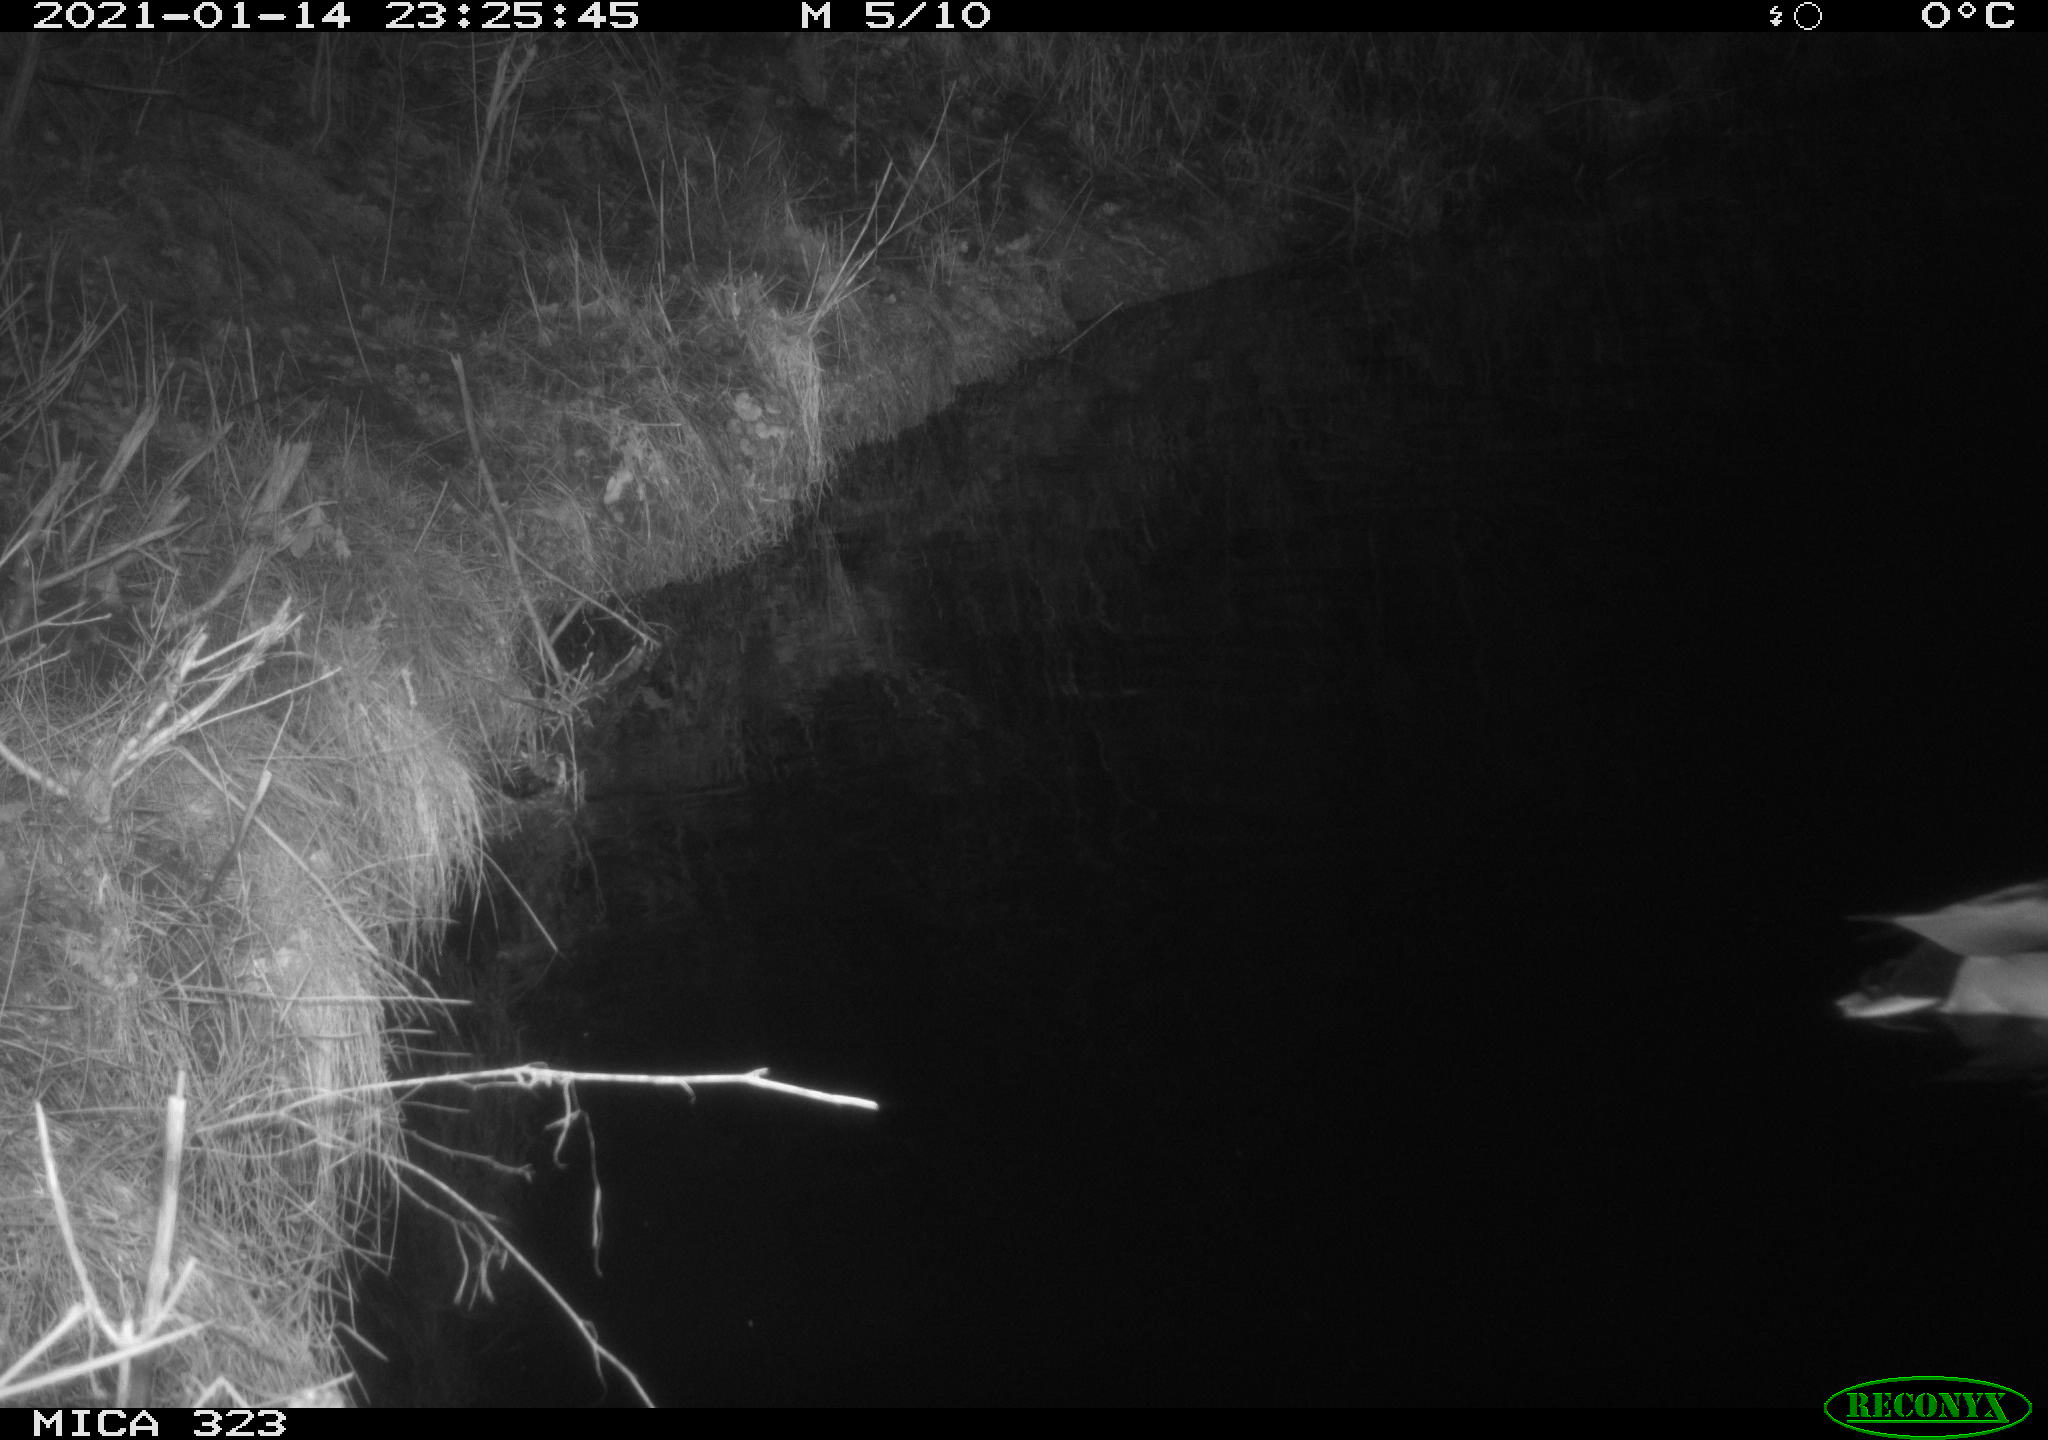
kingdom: Animalia
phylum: Chordata
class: Aves
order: Anseriformes
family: Anatidae
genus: Anas
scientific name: Anas platyrhynchos
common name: Mallard
